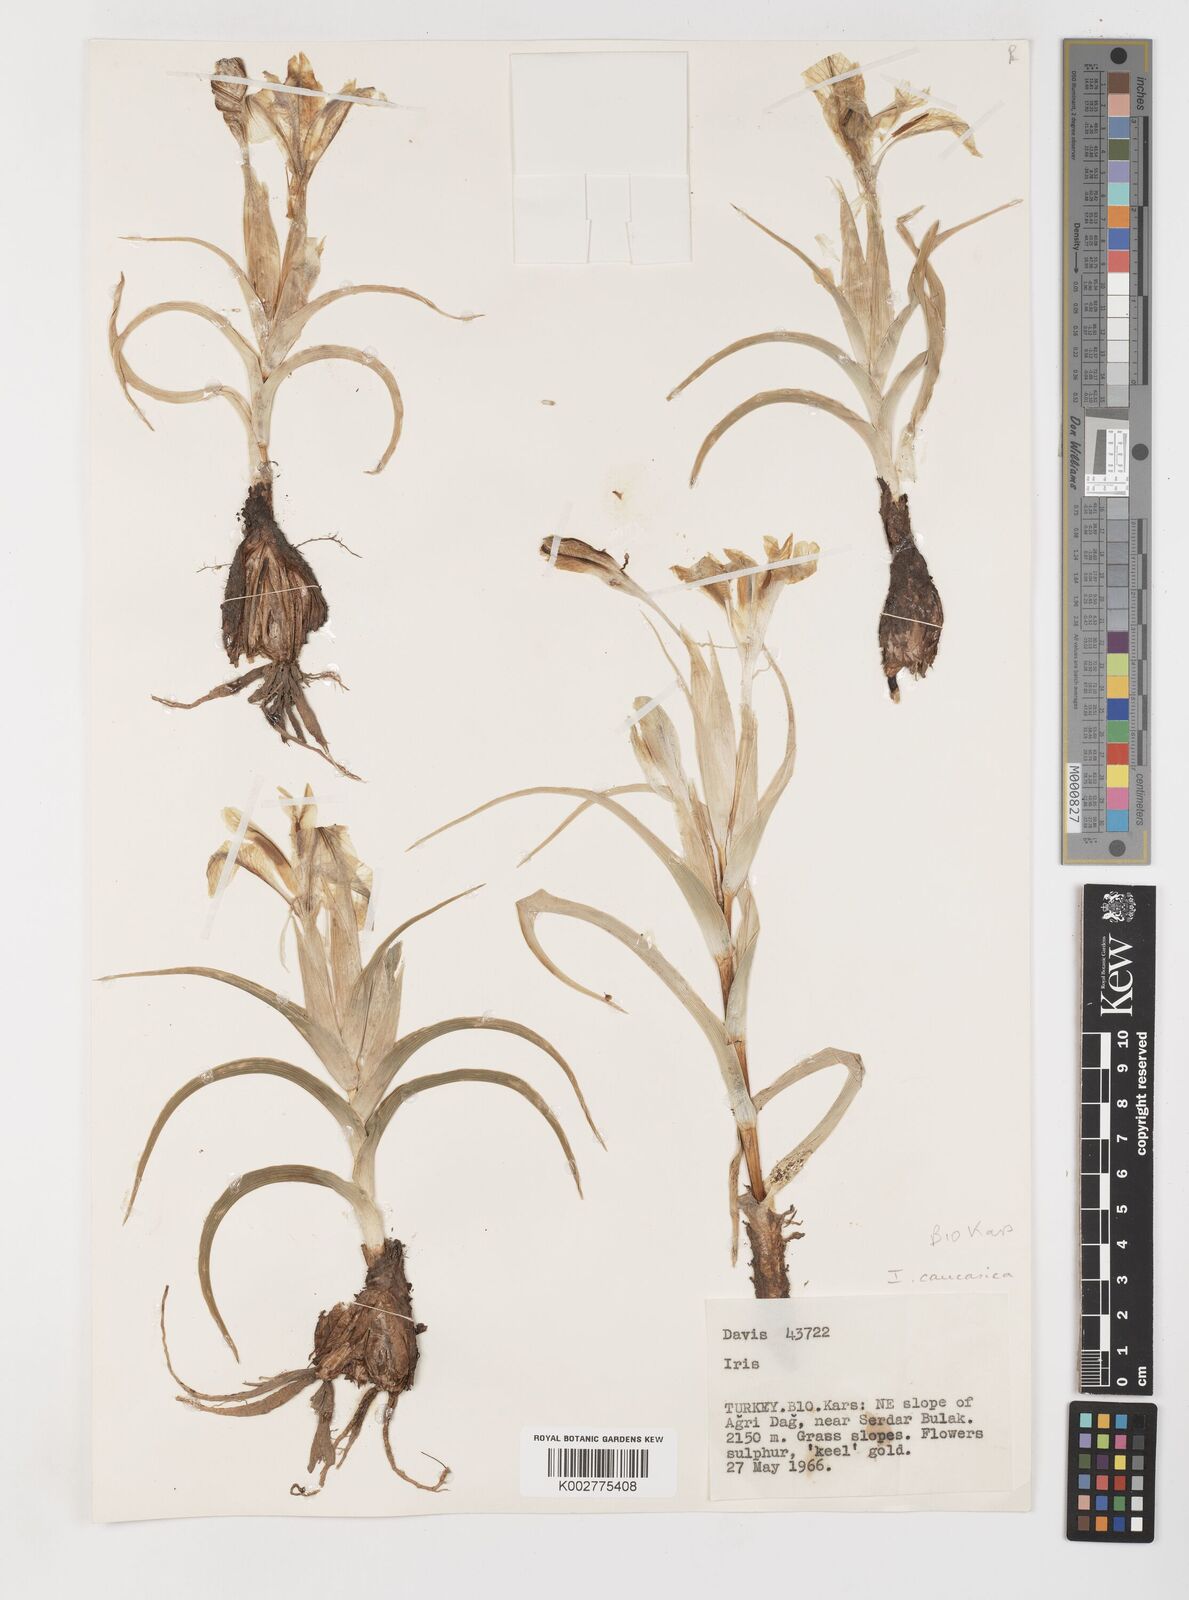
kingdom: Plantae
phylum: Tracheophyta
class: Liliopsida
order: Asparagales
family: Iridaceae
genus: Iris
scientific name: Iris caucasica
